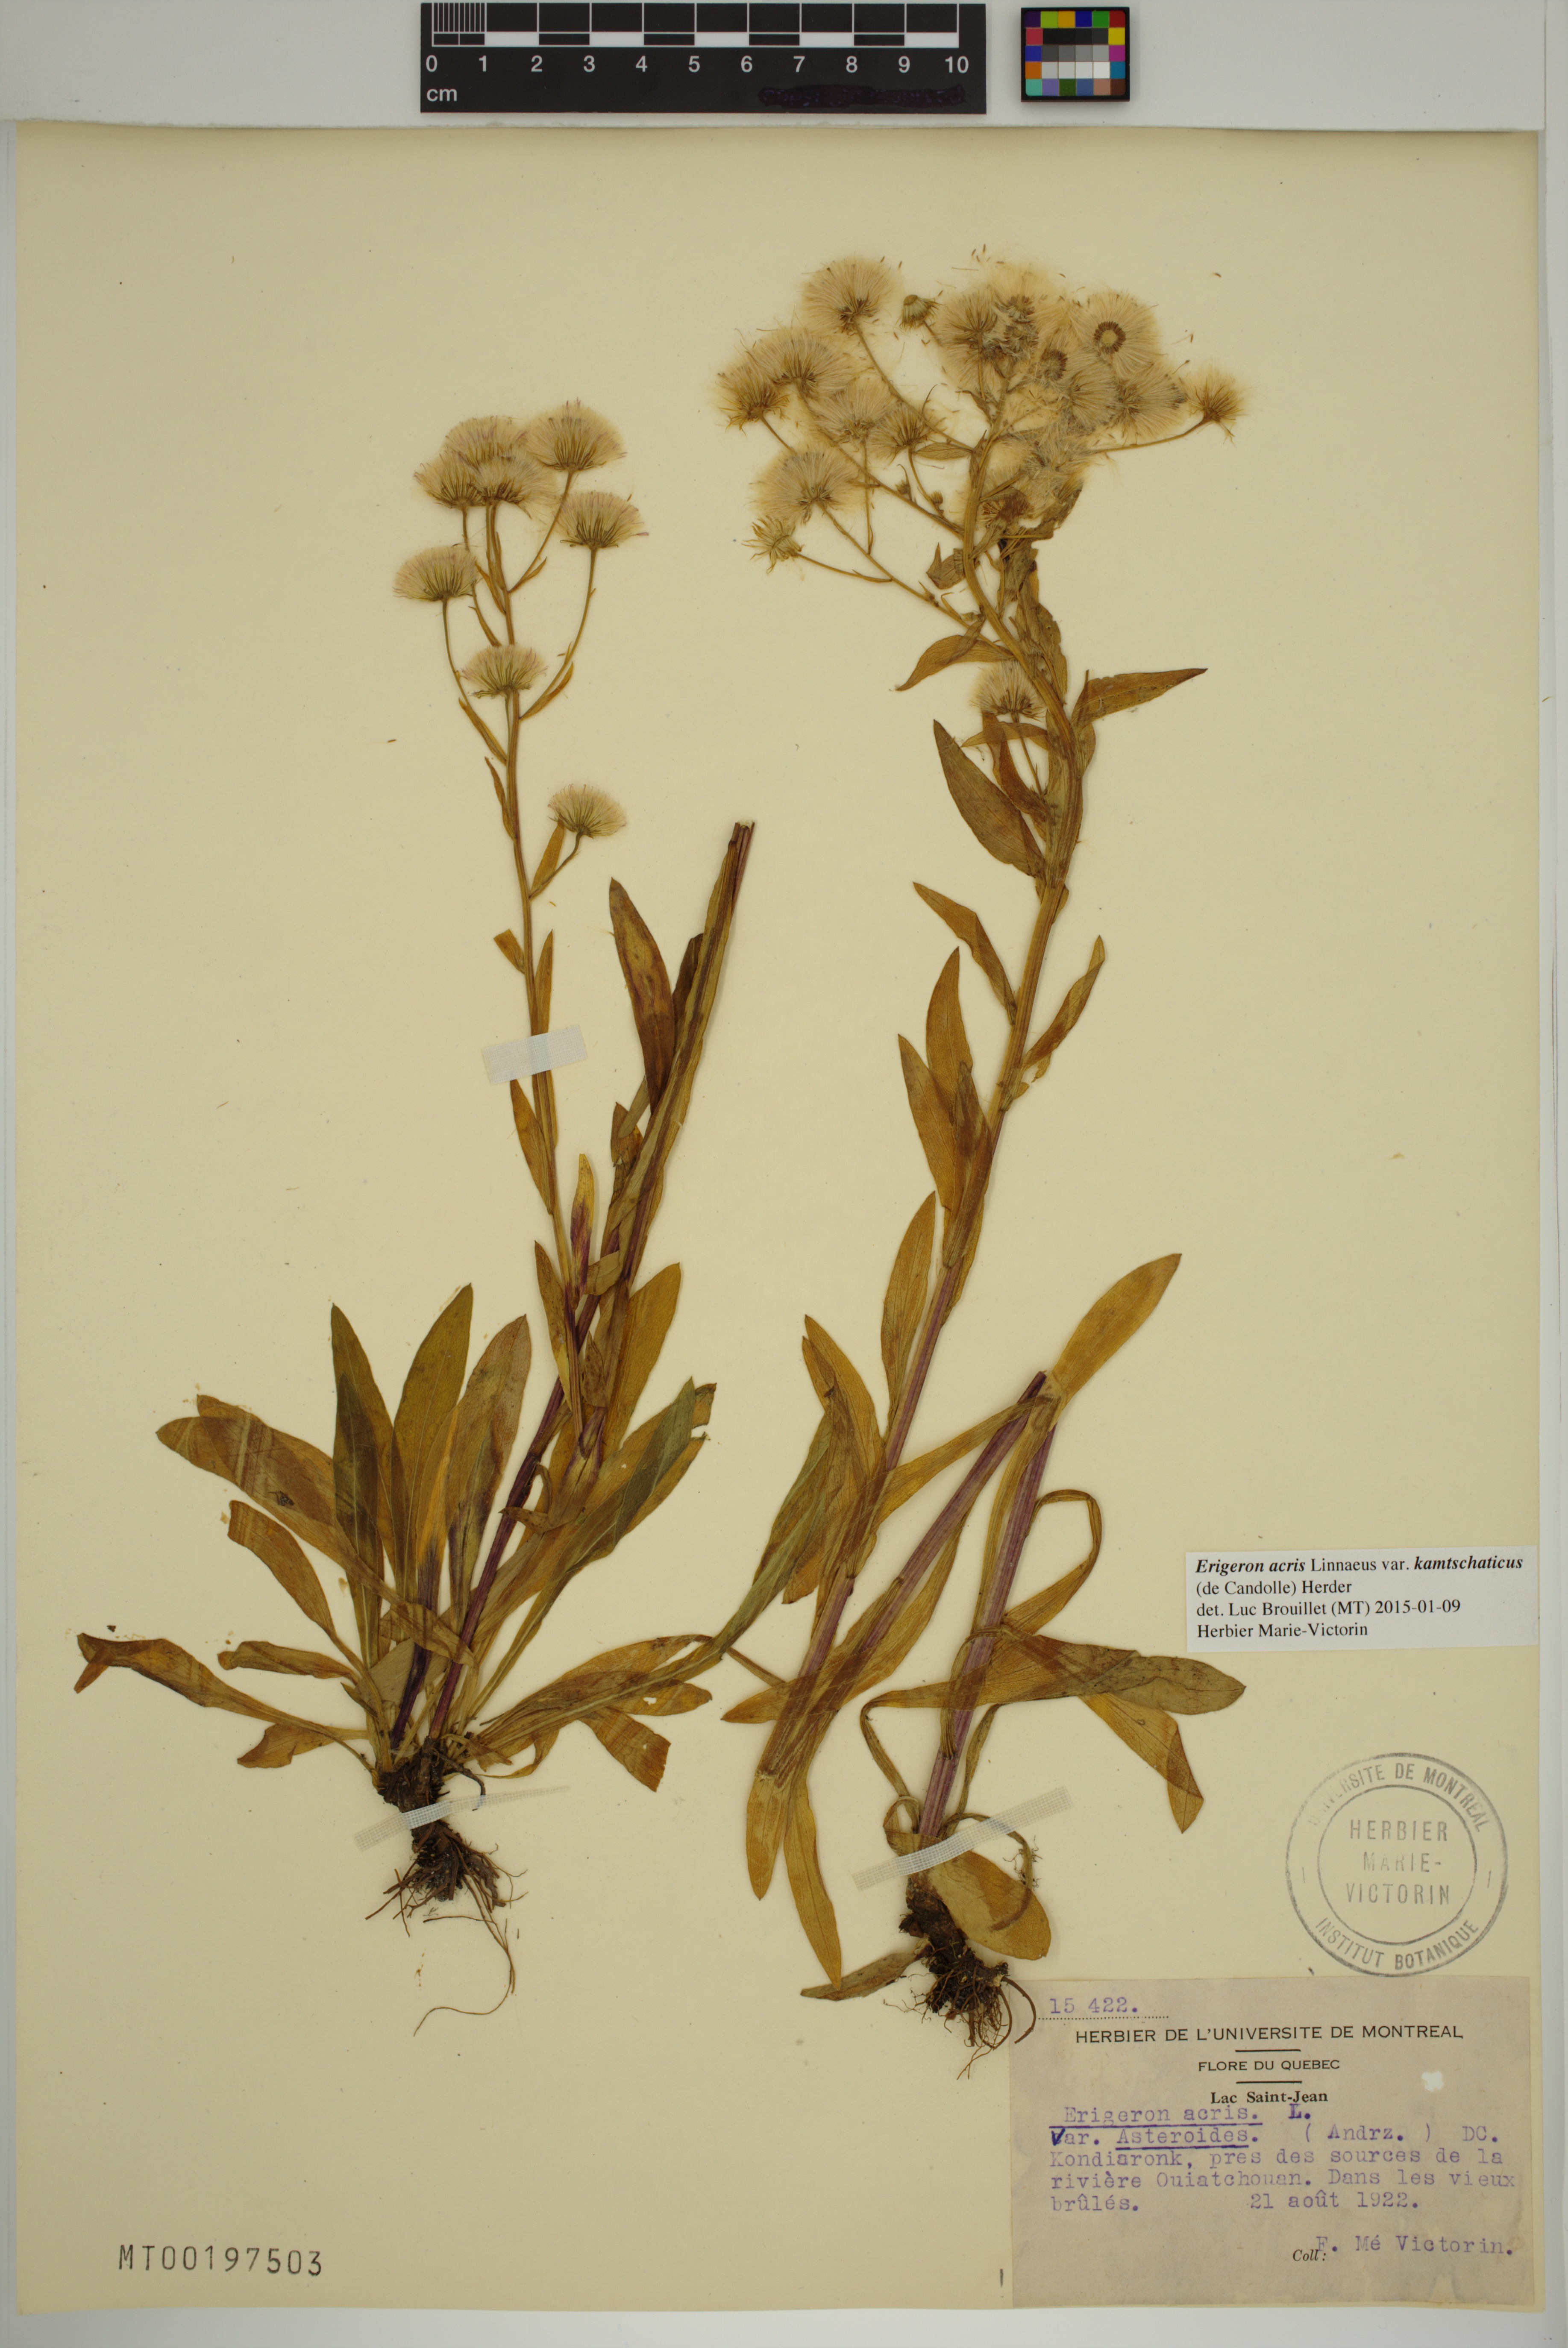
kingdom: Plantae
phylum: Tracheophyta
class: Magnoliopsida
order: Asterales
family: Asteraceae
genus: Erigeron
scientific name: Erigeron kamtschaticus
